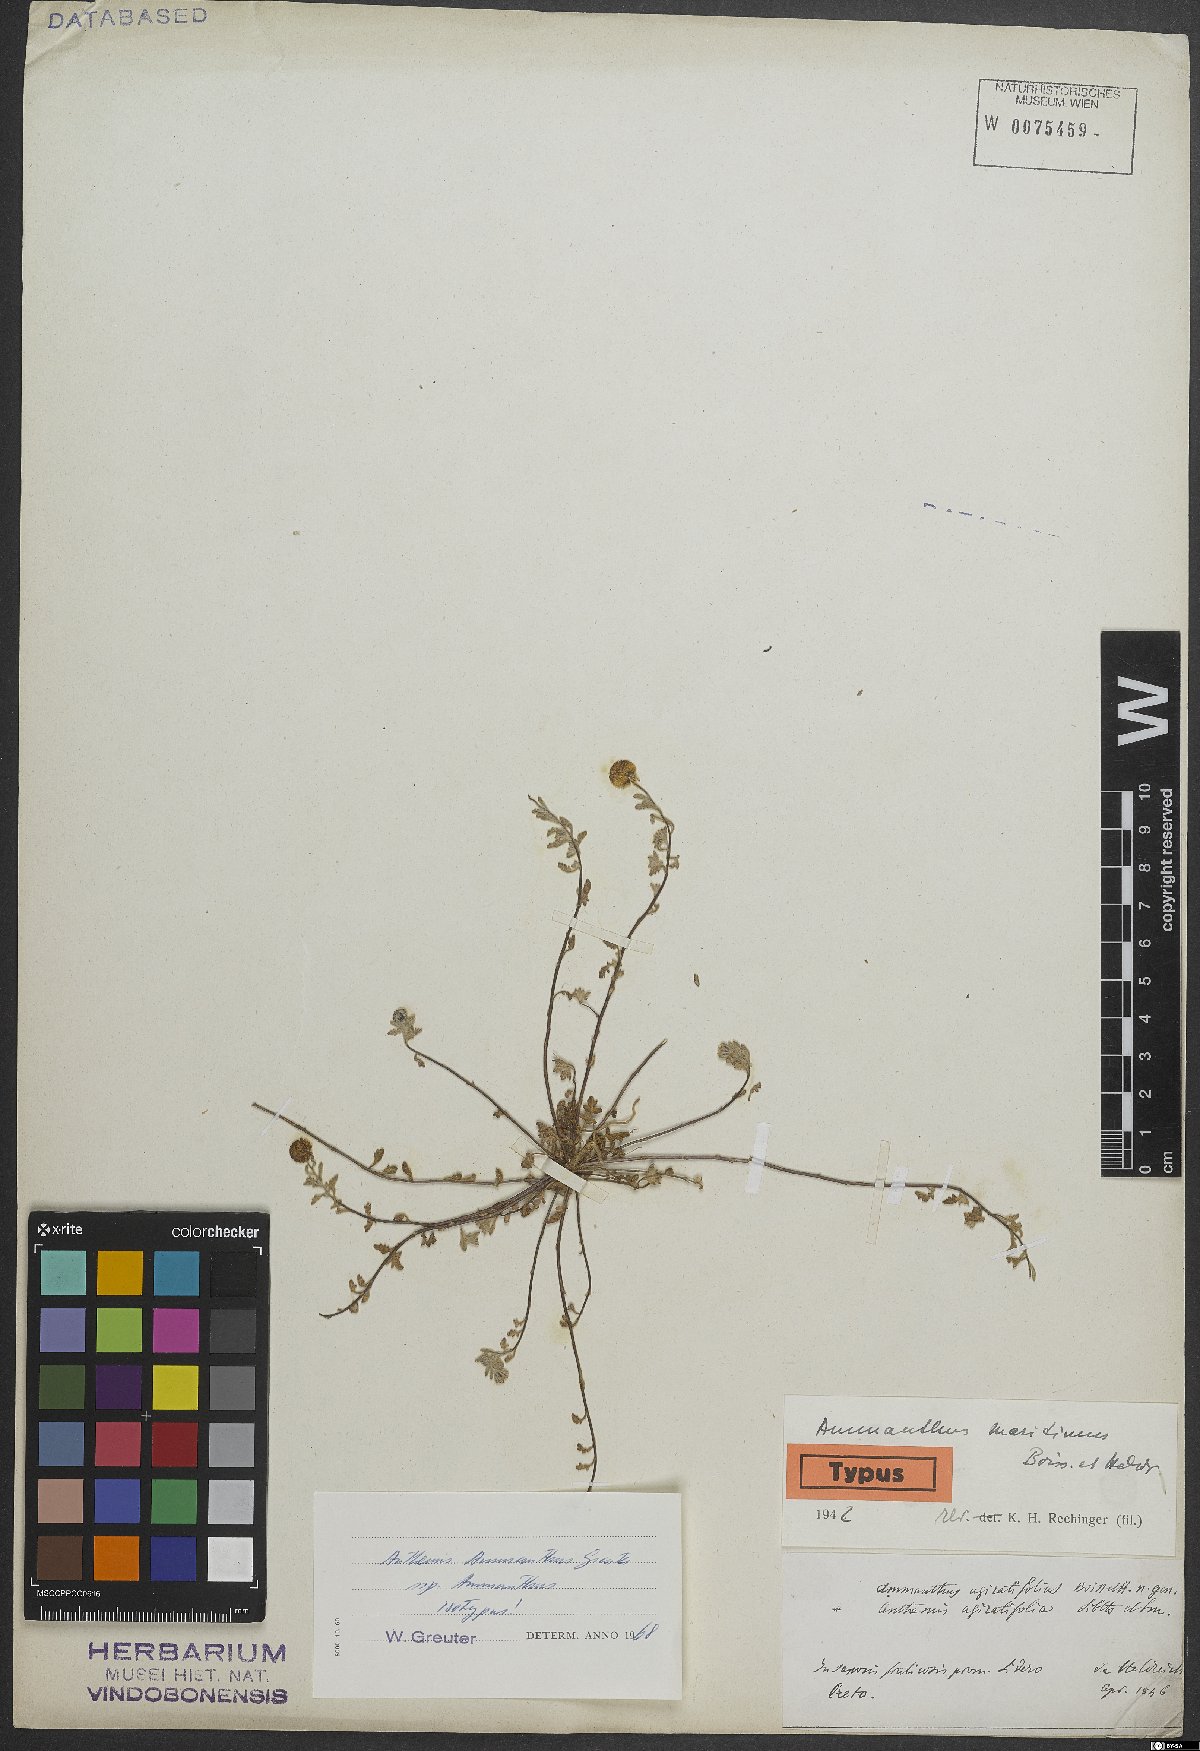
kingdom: Plantae
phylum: Tracheophyta
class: Magnoliopsida
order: Asterales
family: Asteraceae
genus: Anthemis
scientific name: Anthemis ammanthus
